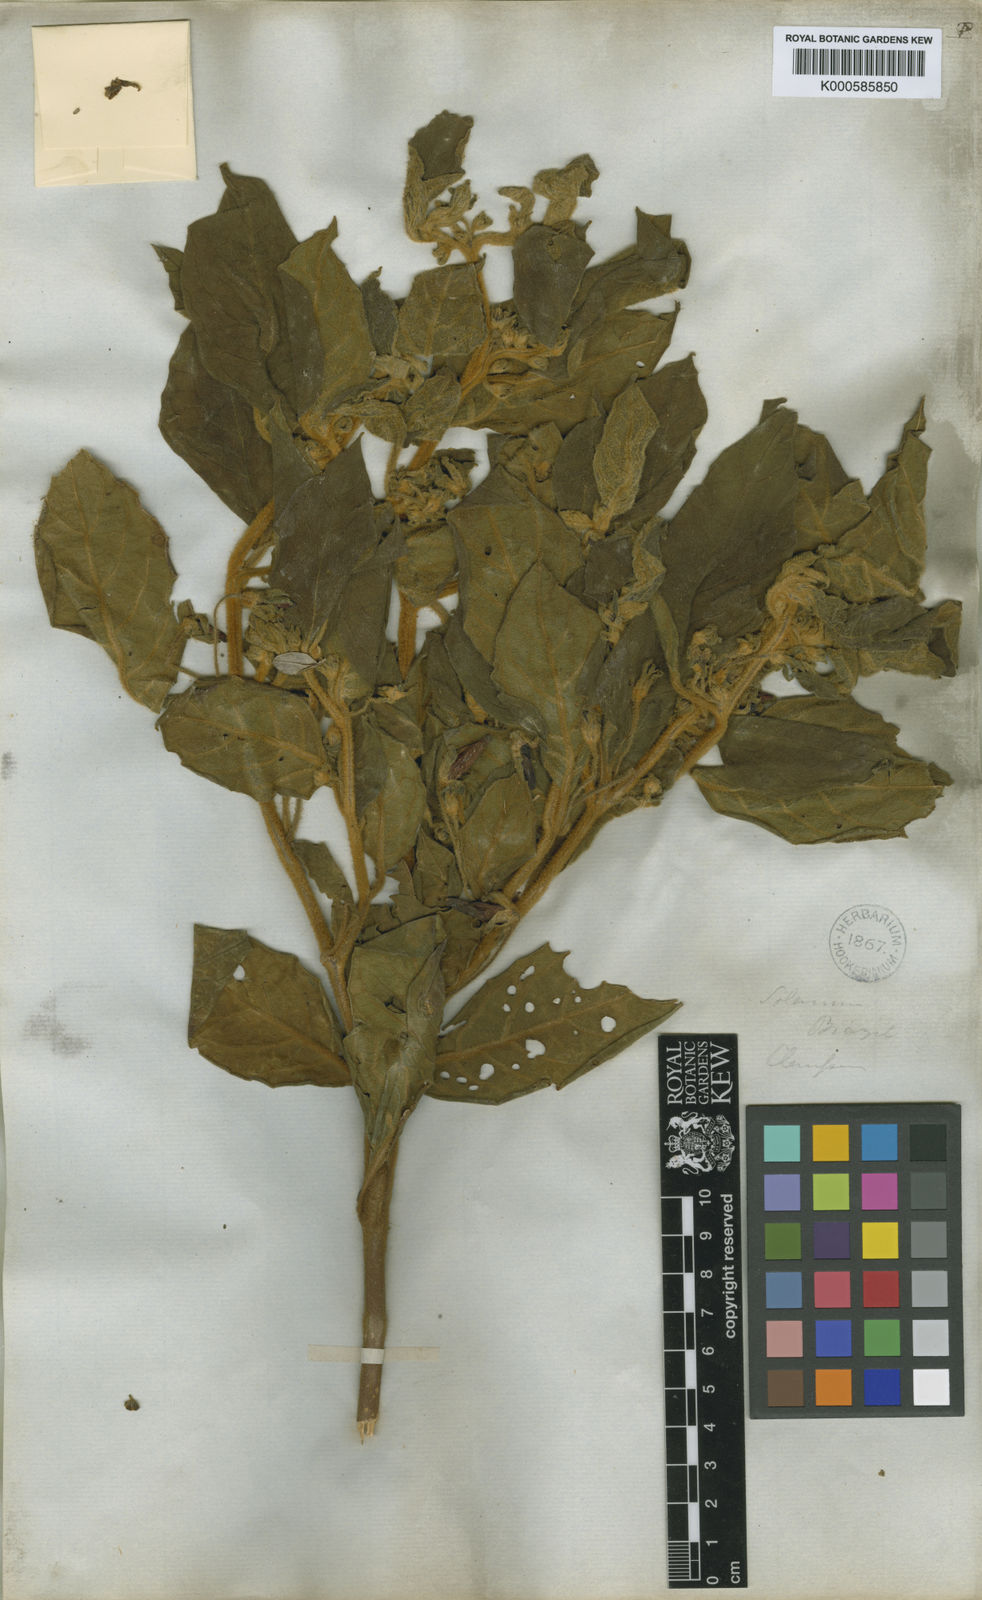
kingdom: Plantae
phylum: Tracheophyta
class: Magnoliopsida
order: Solanales
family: Solanaceae
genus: Athenaea
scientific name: Athenaea velutina
